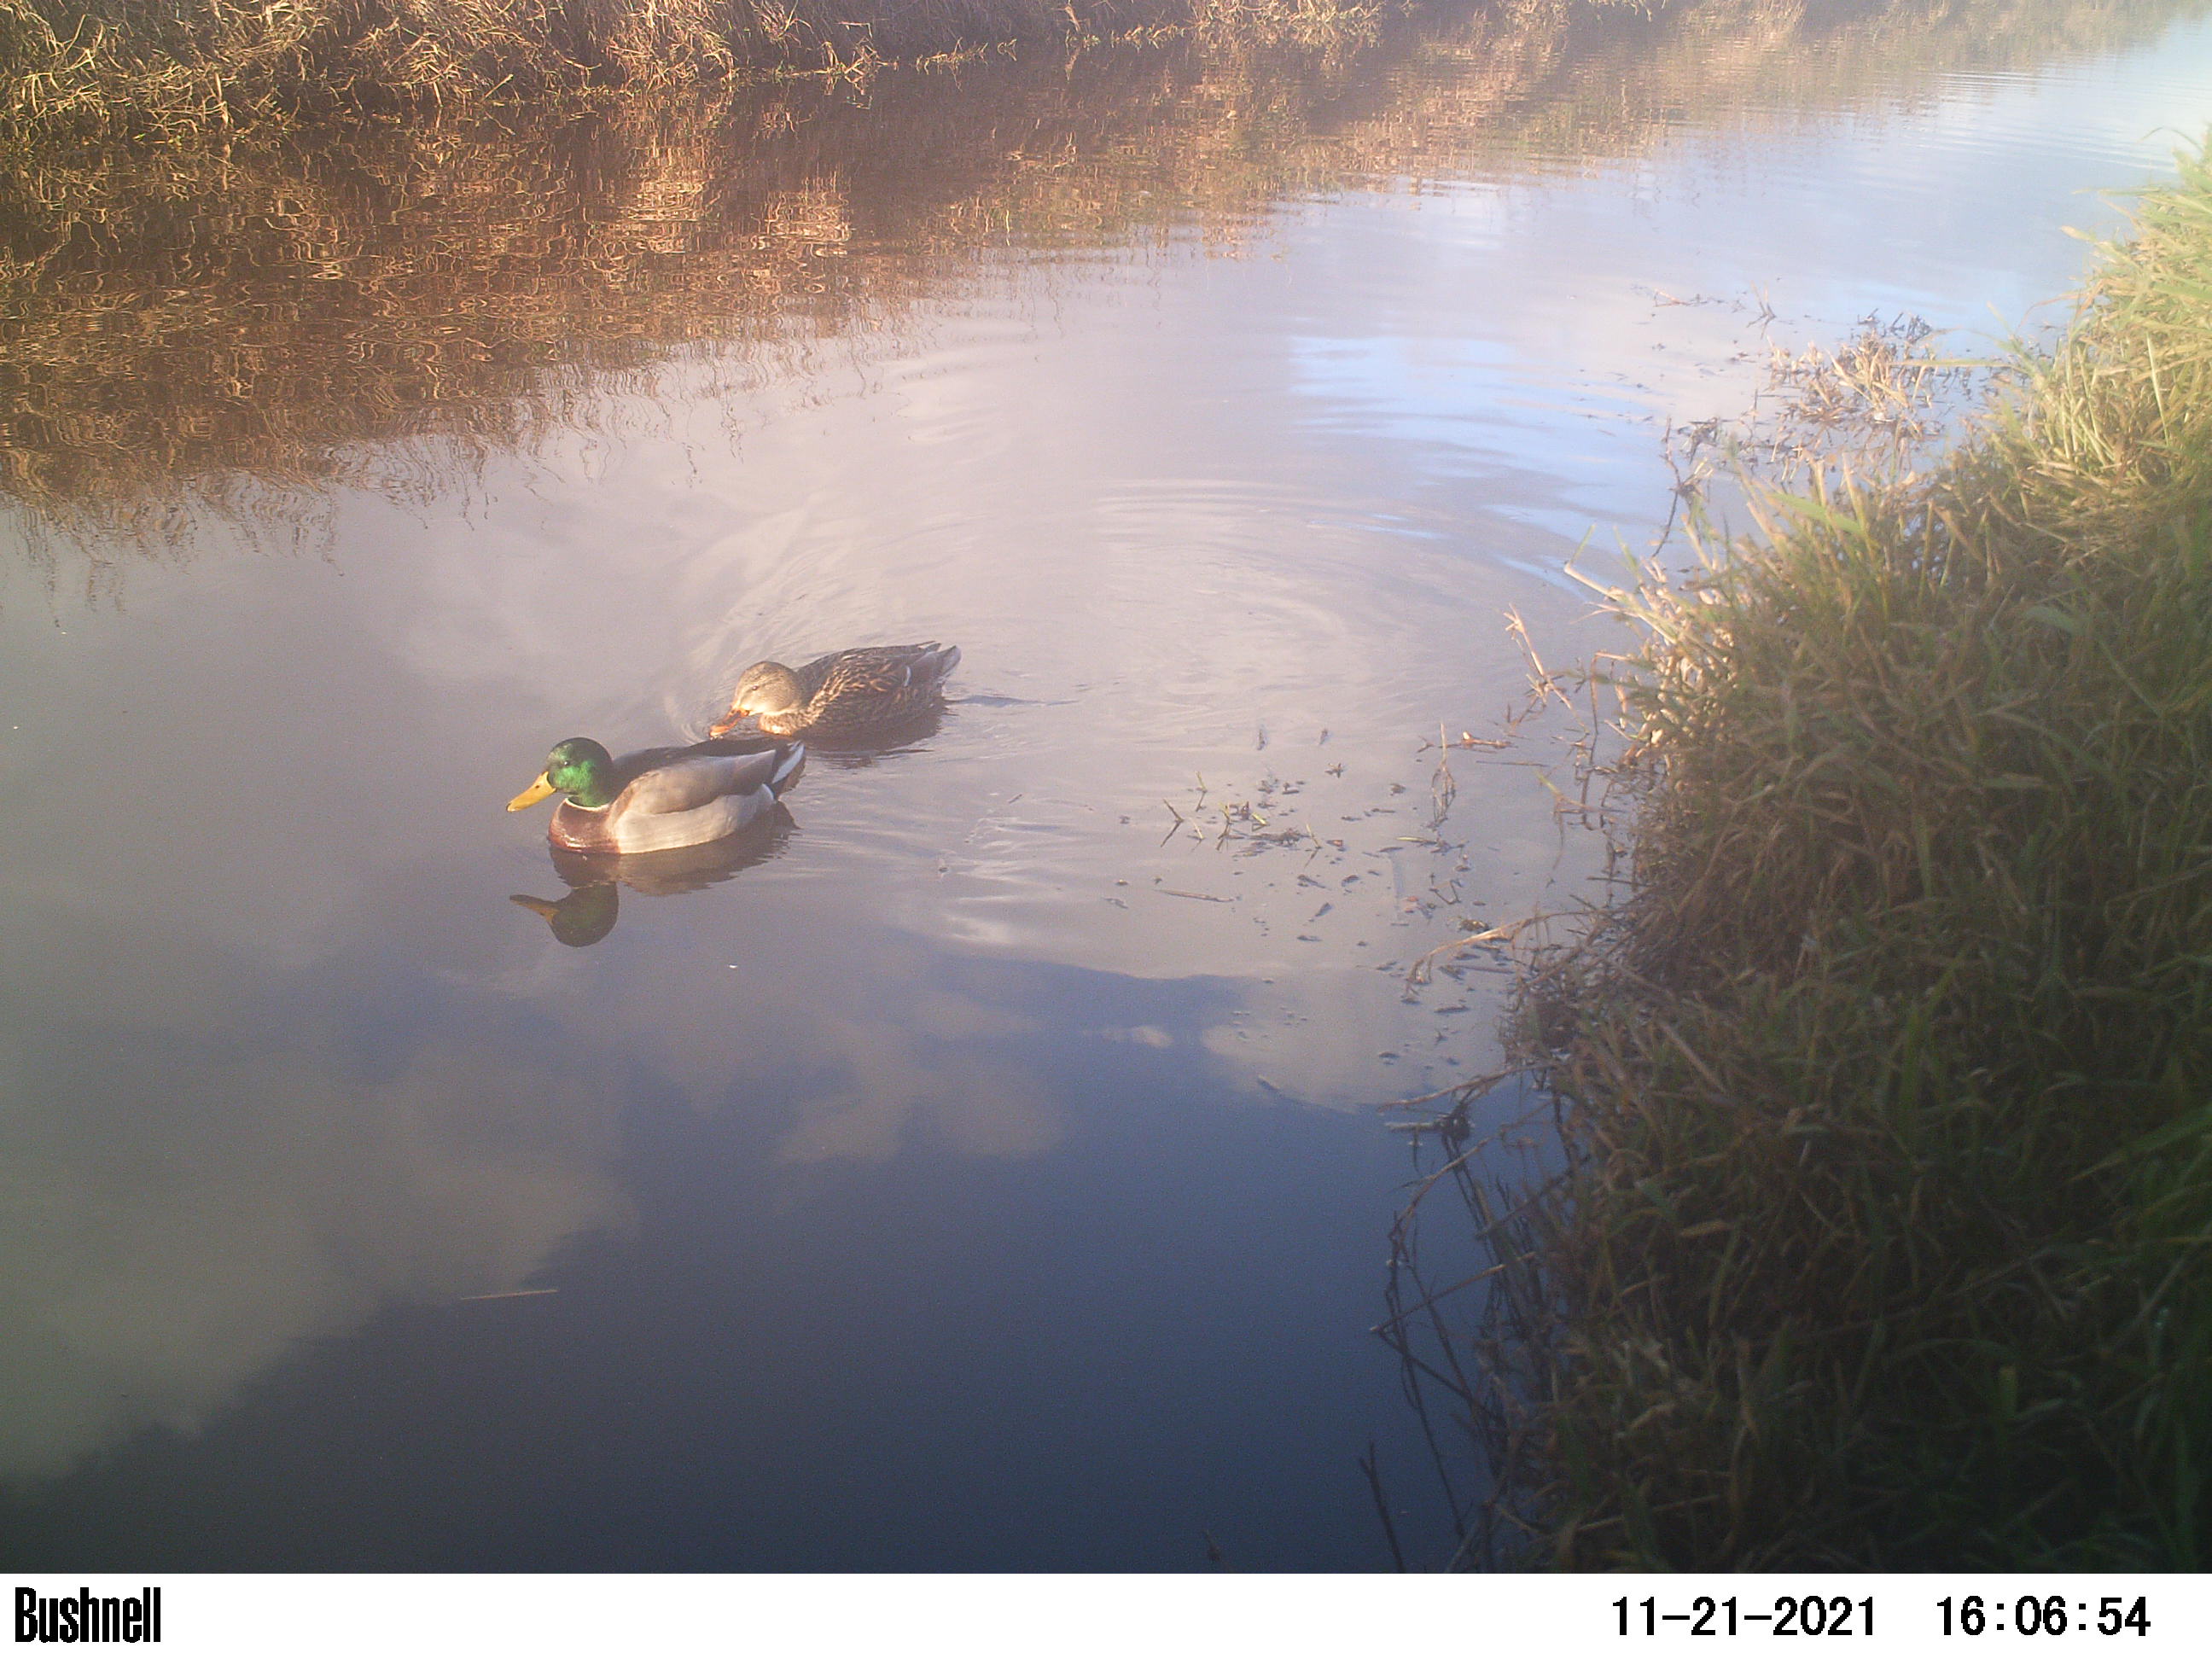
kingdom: Animalia
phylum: Chordata
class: Aves
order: Anseriformes
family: Anatidae
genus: Anas
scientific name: Anas
